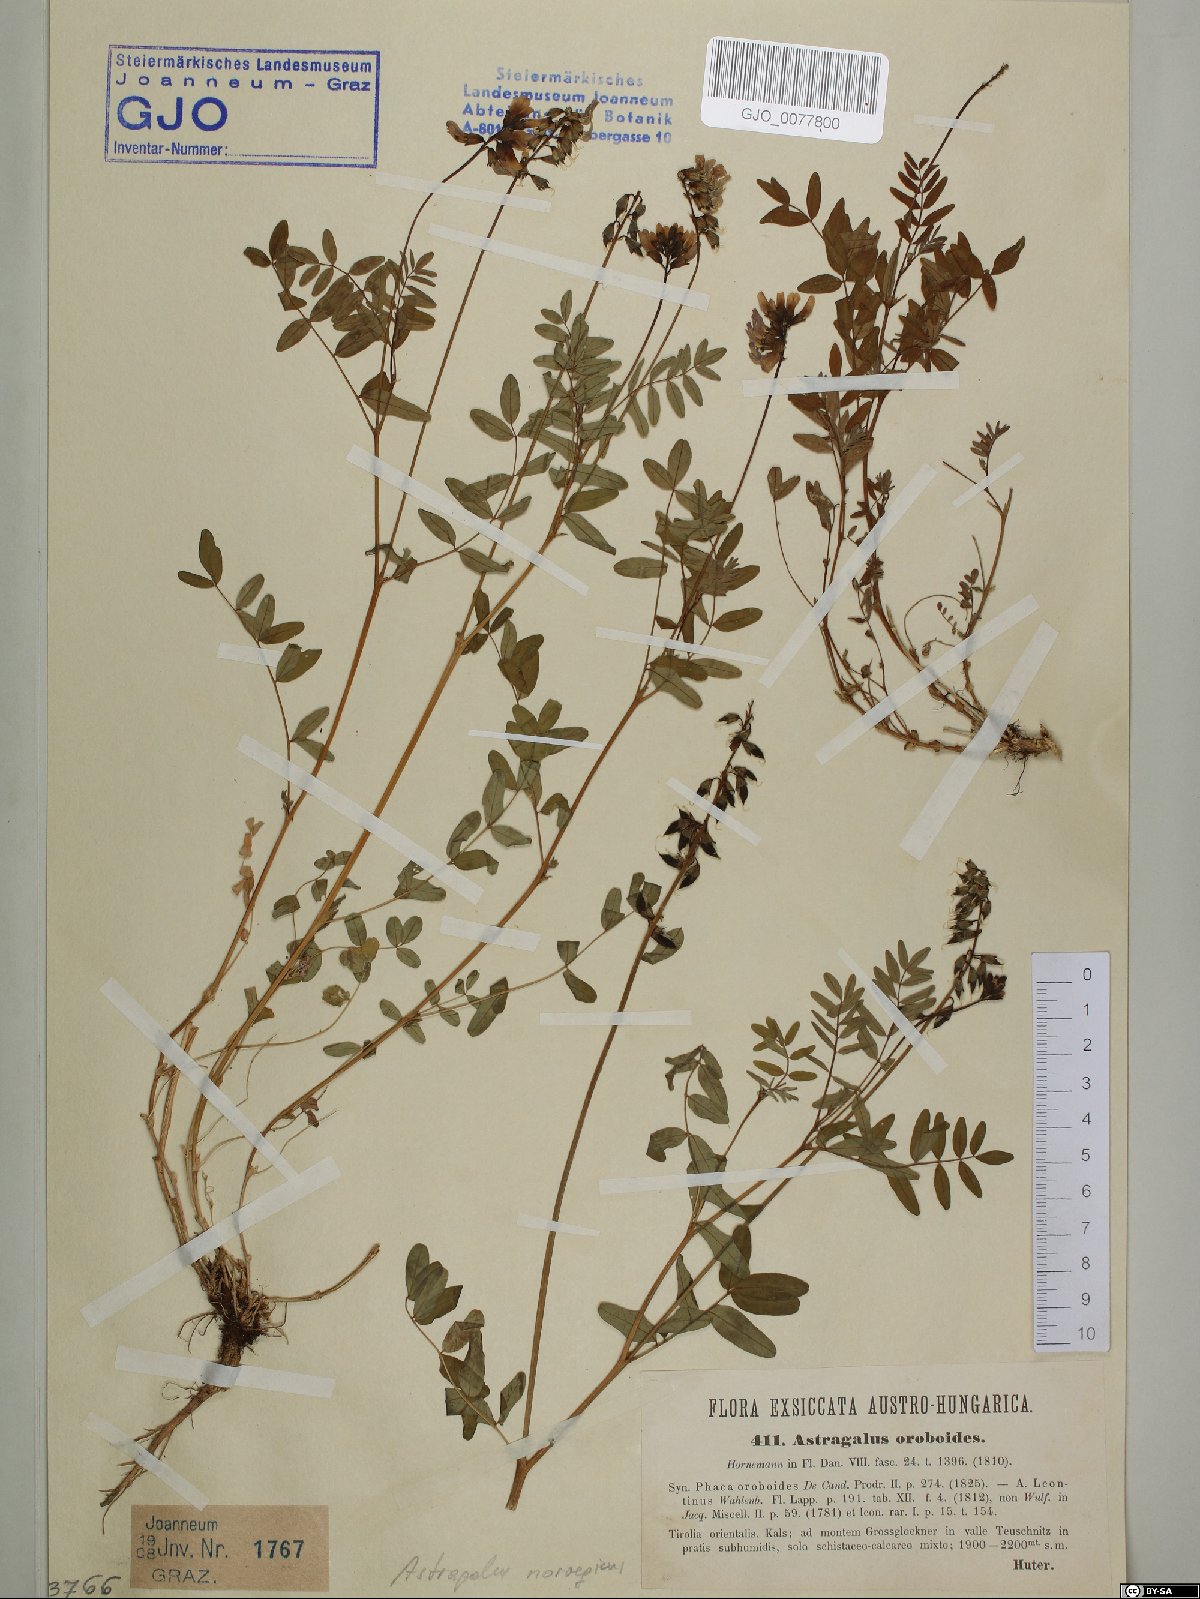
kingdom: Plantae
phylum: Tracheophyta
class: Magnoliopsida
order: Fabales
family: Fabaceae
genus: Astragalus
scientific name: Astragalus norvegicus
